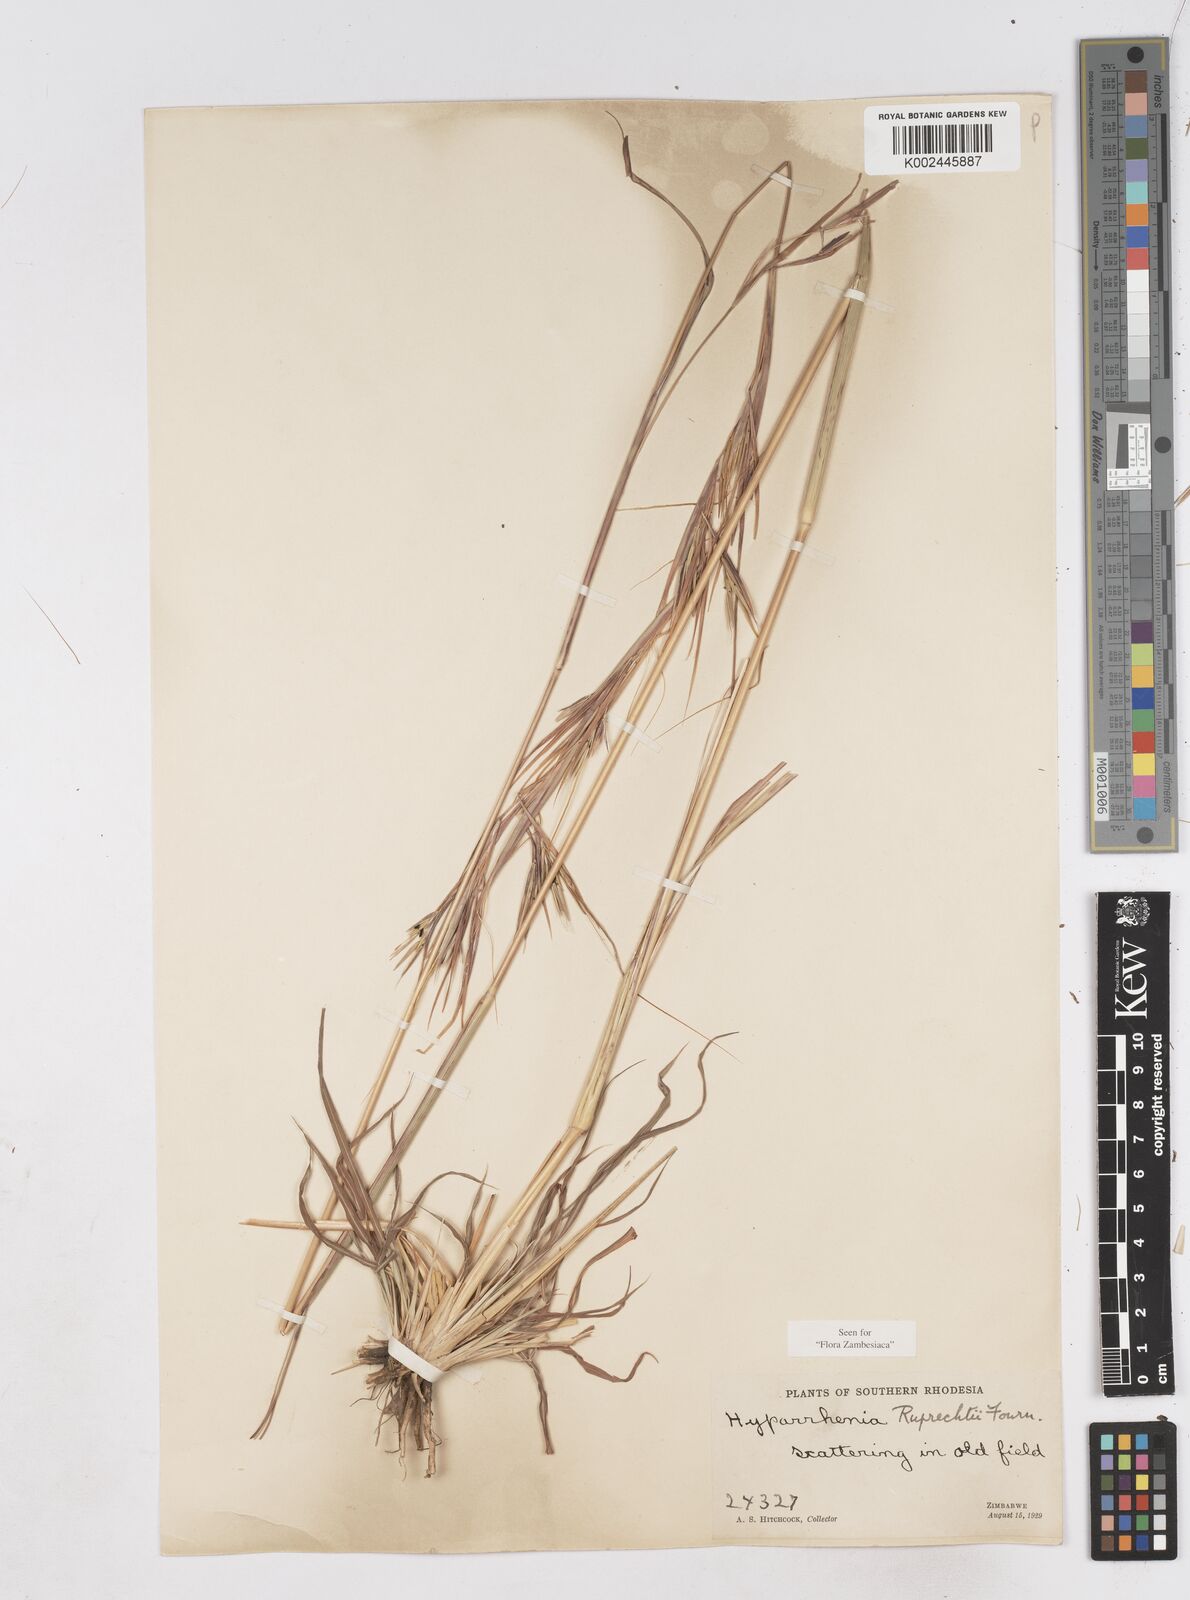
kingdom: Plantae
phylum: Tracheophyta
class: Liliopsida
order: Poales
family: Poaceae
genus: Hyperthelia
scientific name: Hyperthelia dissoluta
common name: Yellow thatching grass
